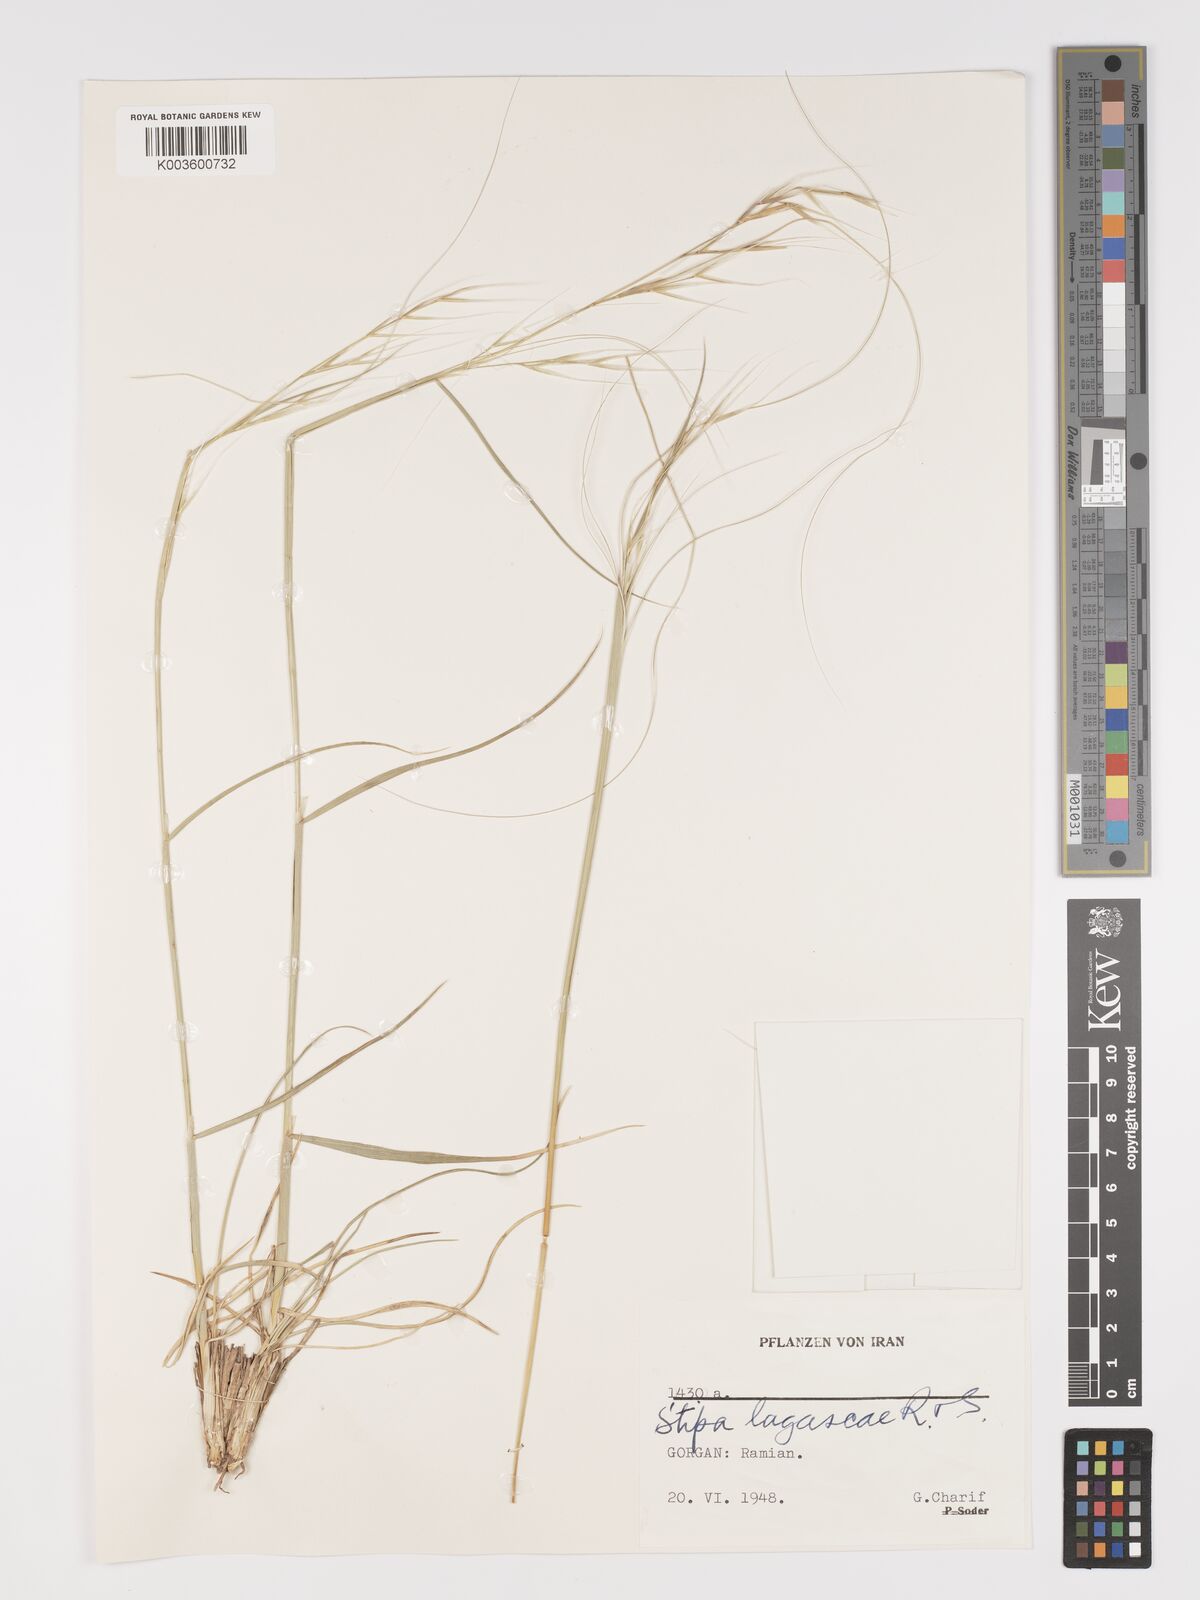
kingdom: Plantae
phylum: Tracheophyta
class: Liliopsida
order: Poales
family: Poaceae
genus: Stipa
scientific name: Stipa holosericea
